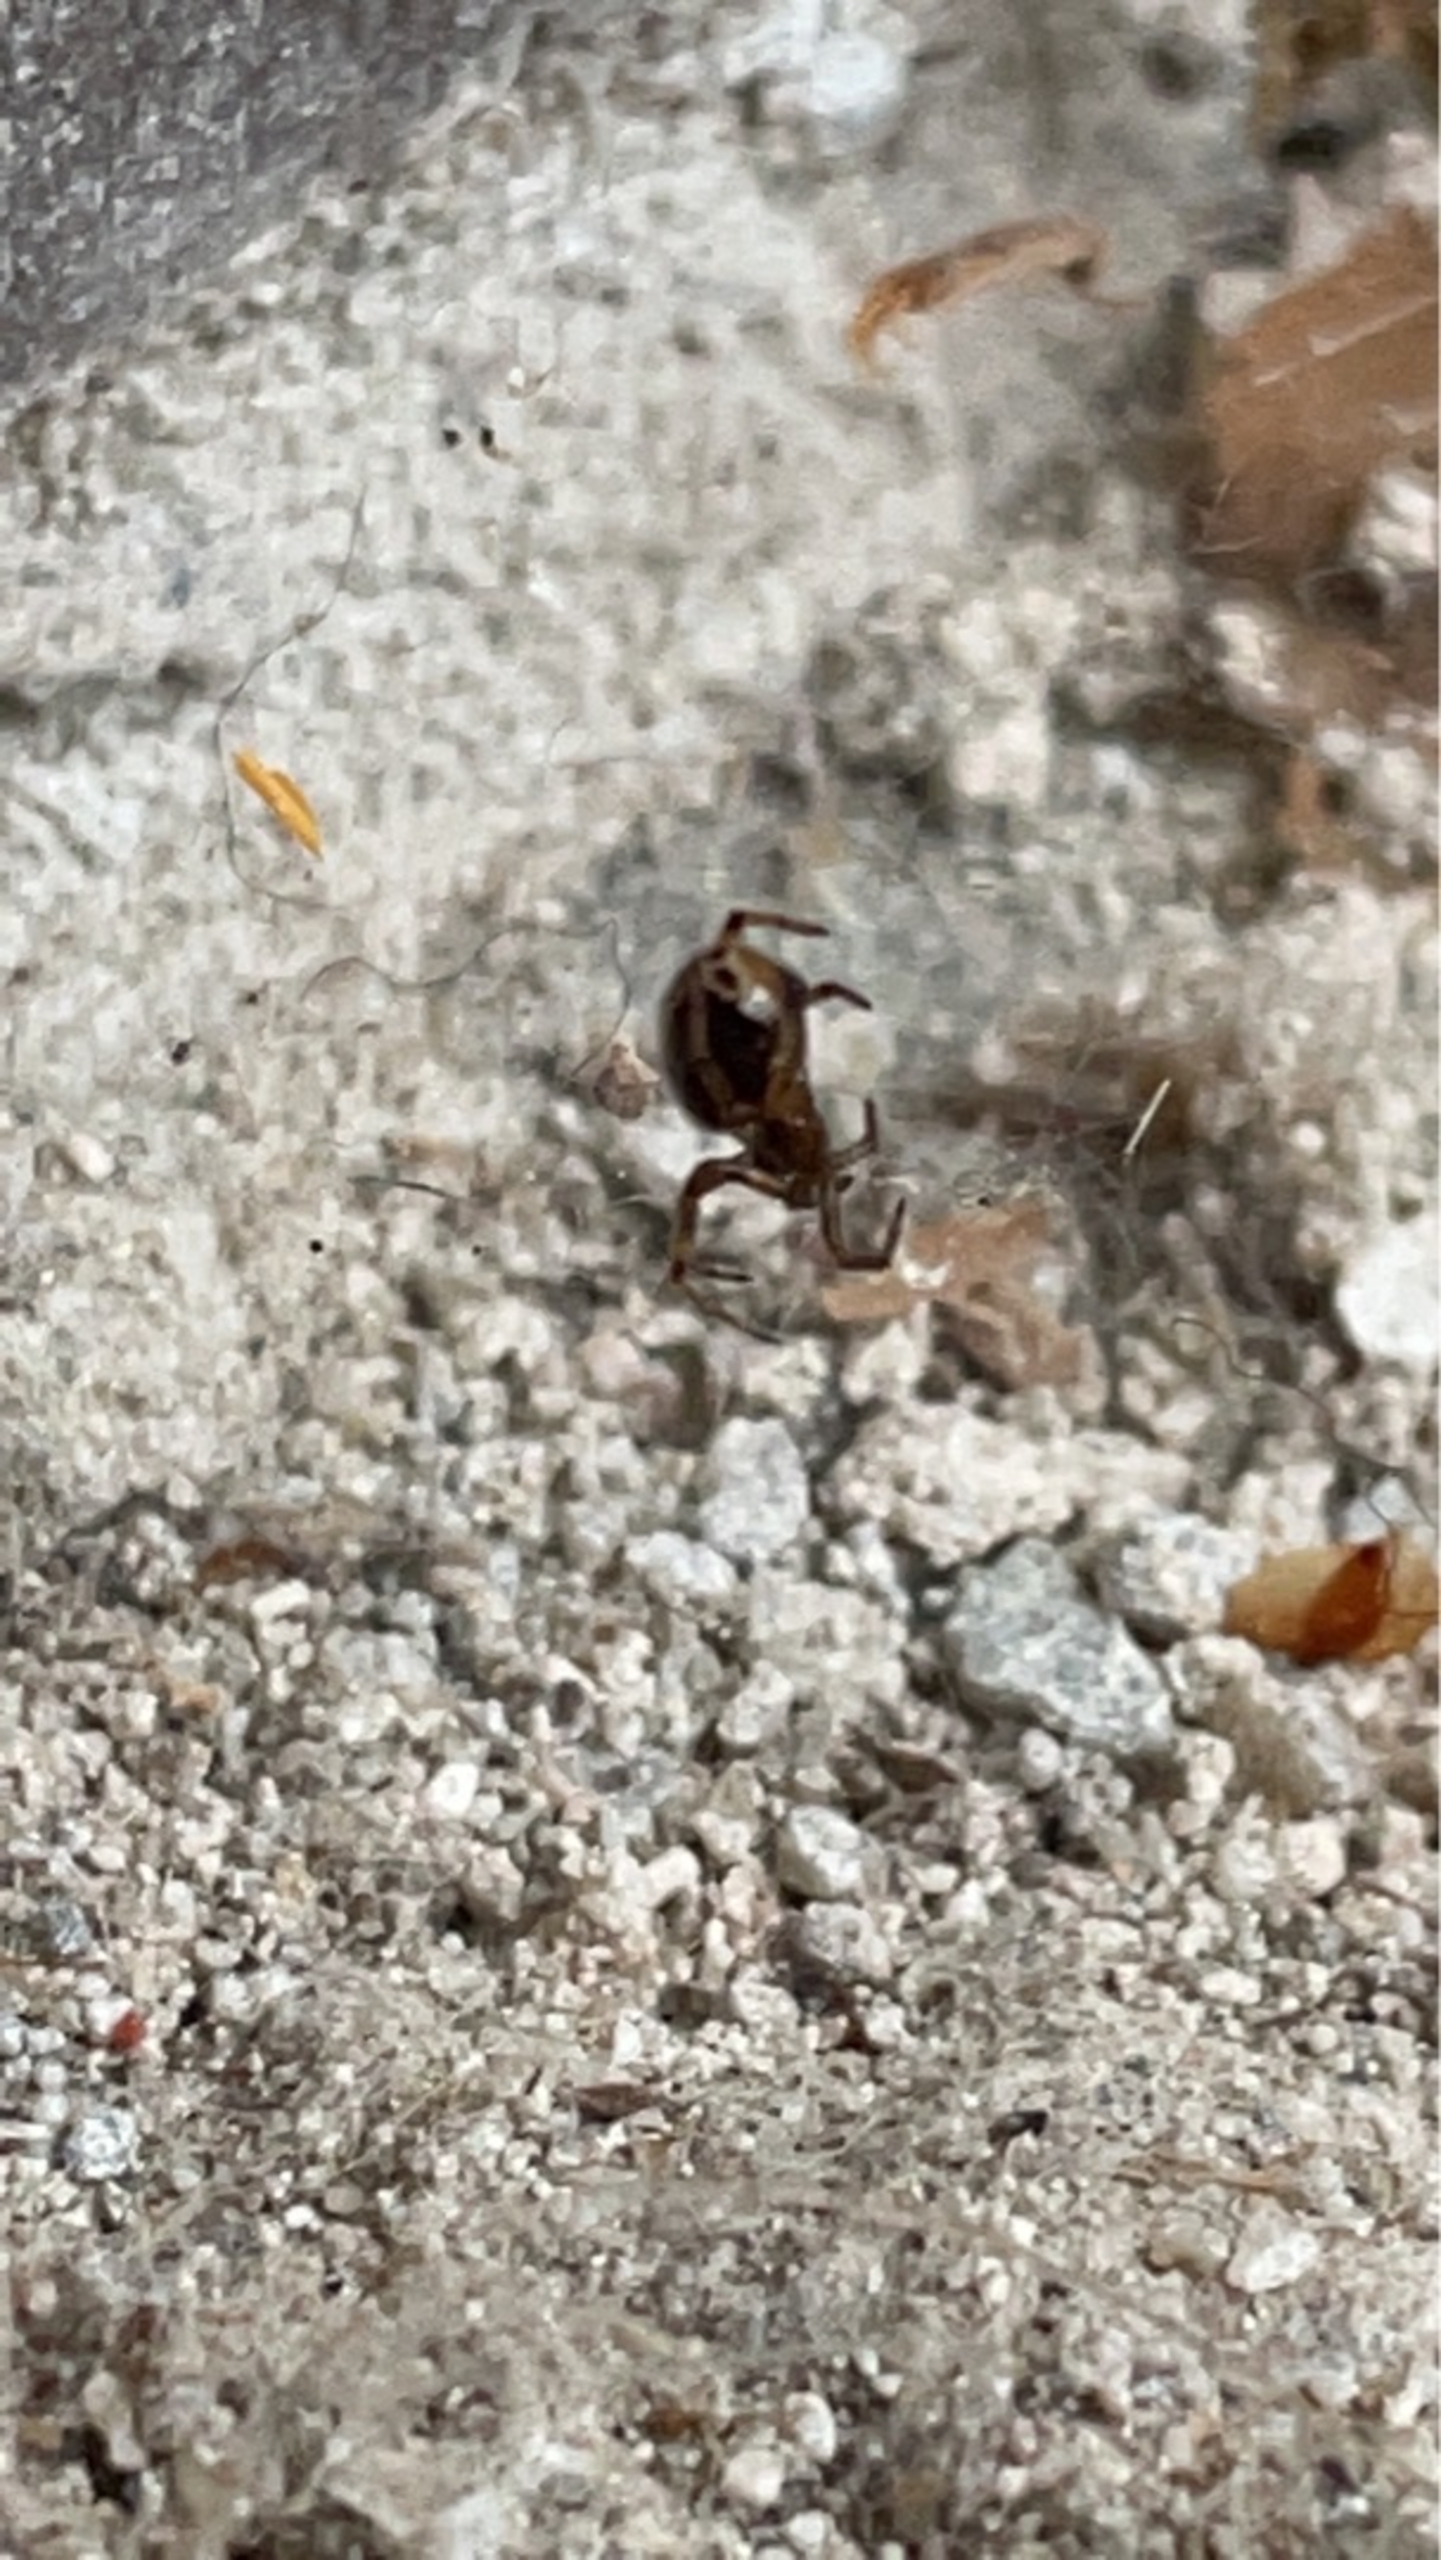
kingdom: Animalia
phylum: Arthropoda
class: Arachnida
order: Araneae
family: Theridiidae
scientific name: Theridiidae
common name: Kugleedderkopper
